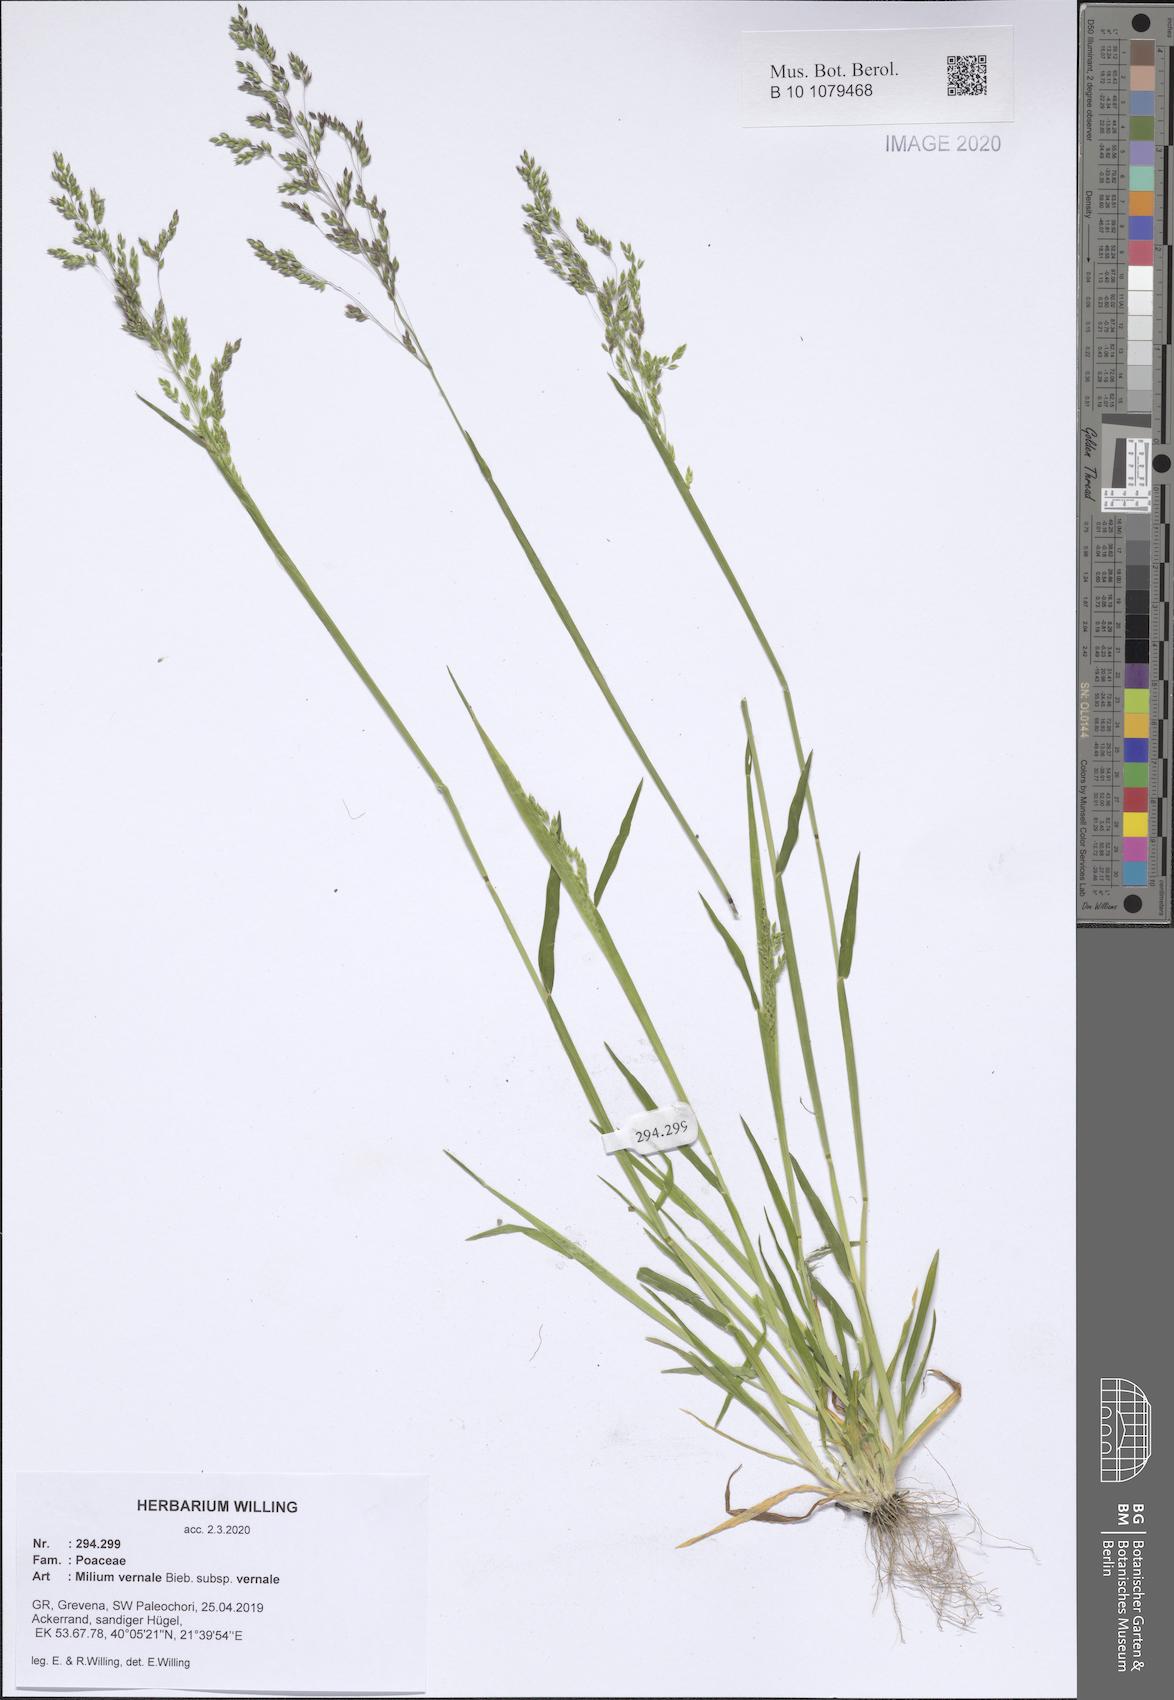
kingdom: Plantae
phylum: Tracheophyta
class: Liliopsida
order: Poales
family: Poaceae
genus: Milium
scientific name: Milium vernale
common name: Early millet
